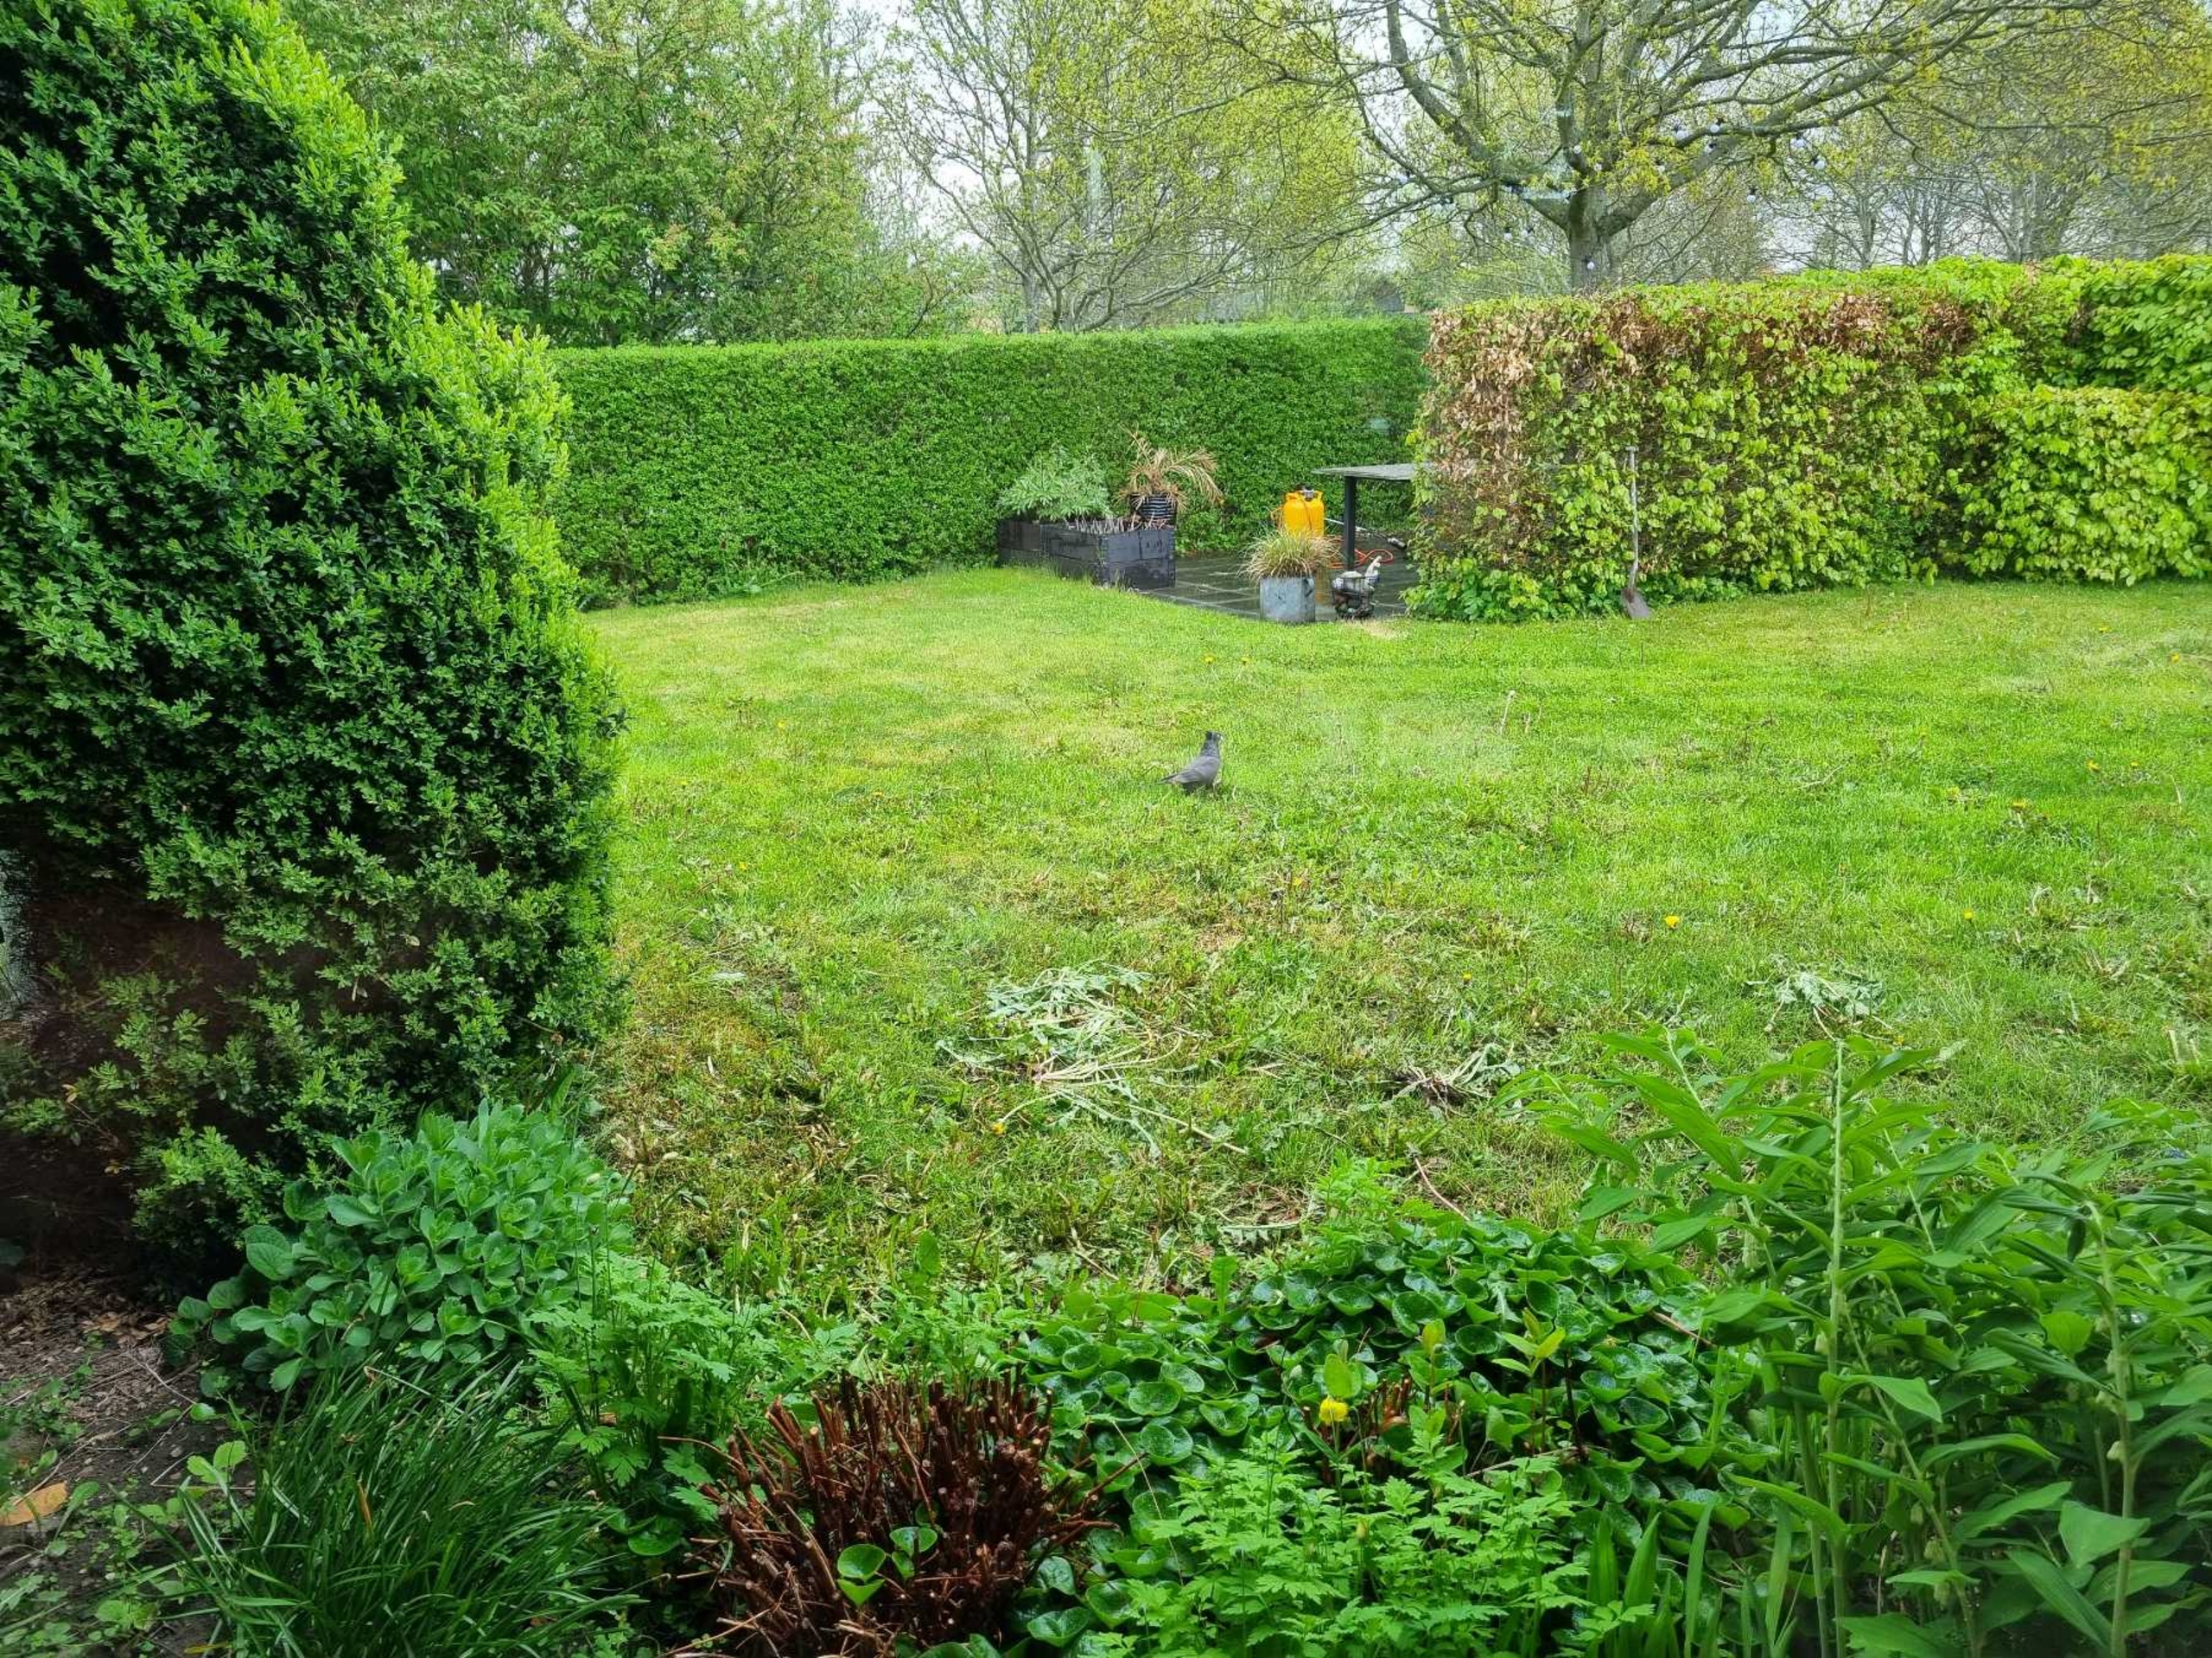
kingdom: Animalia
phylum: Chordata
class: Aves
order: Columbiformes
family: Columbidae
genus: Columba
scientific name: Columba livia
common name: Tamdue
